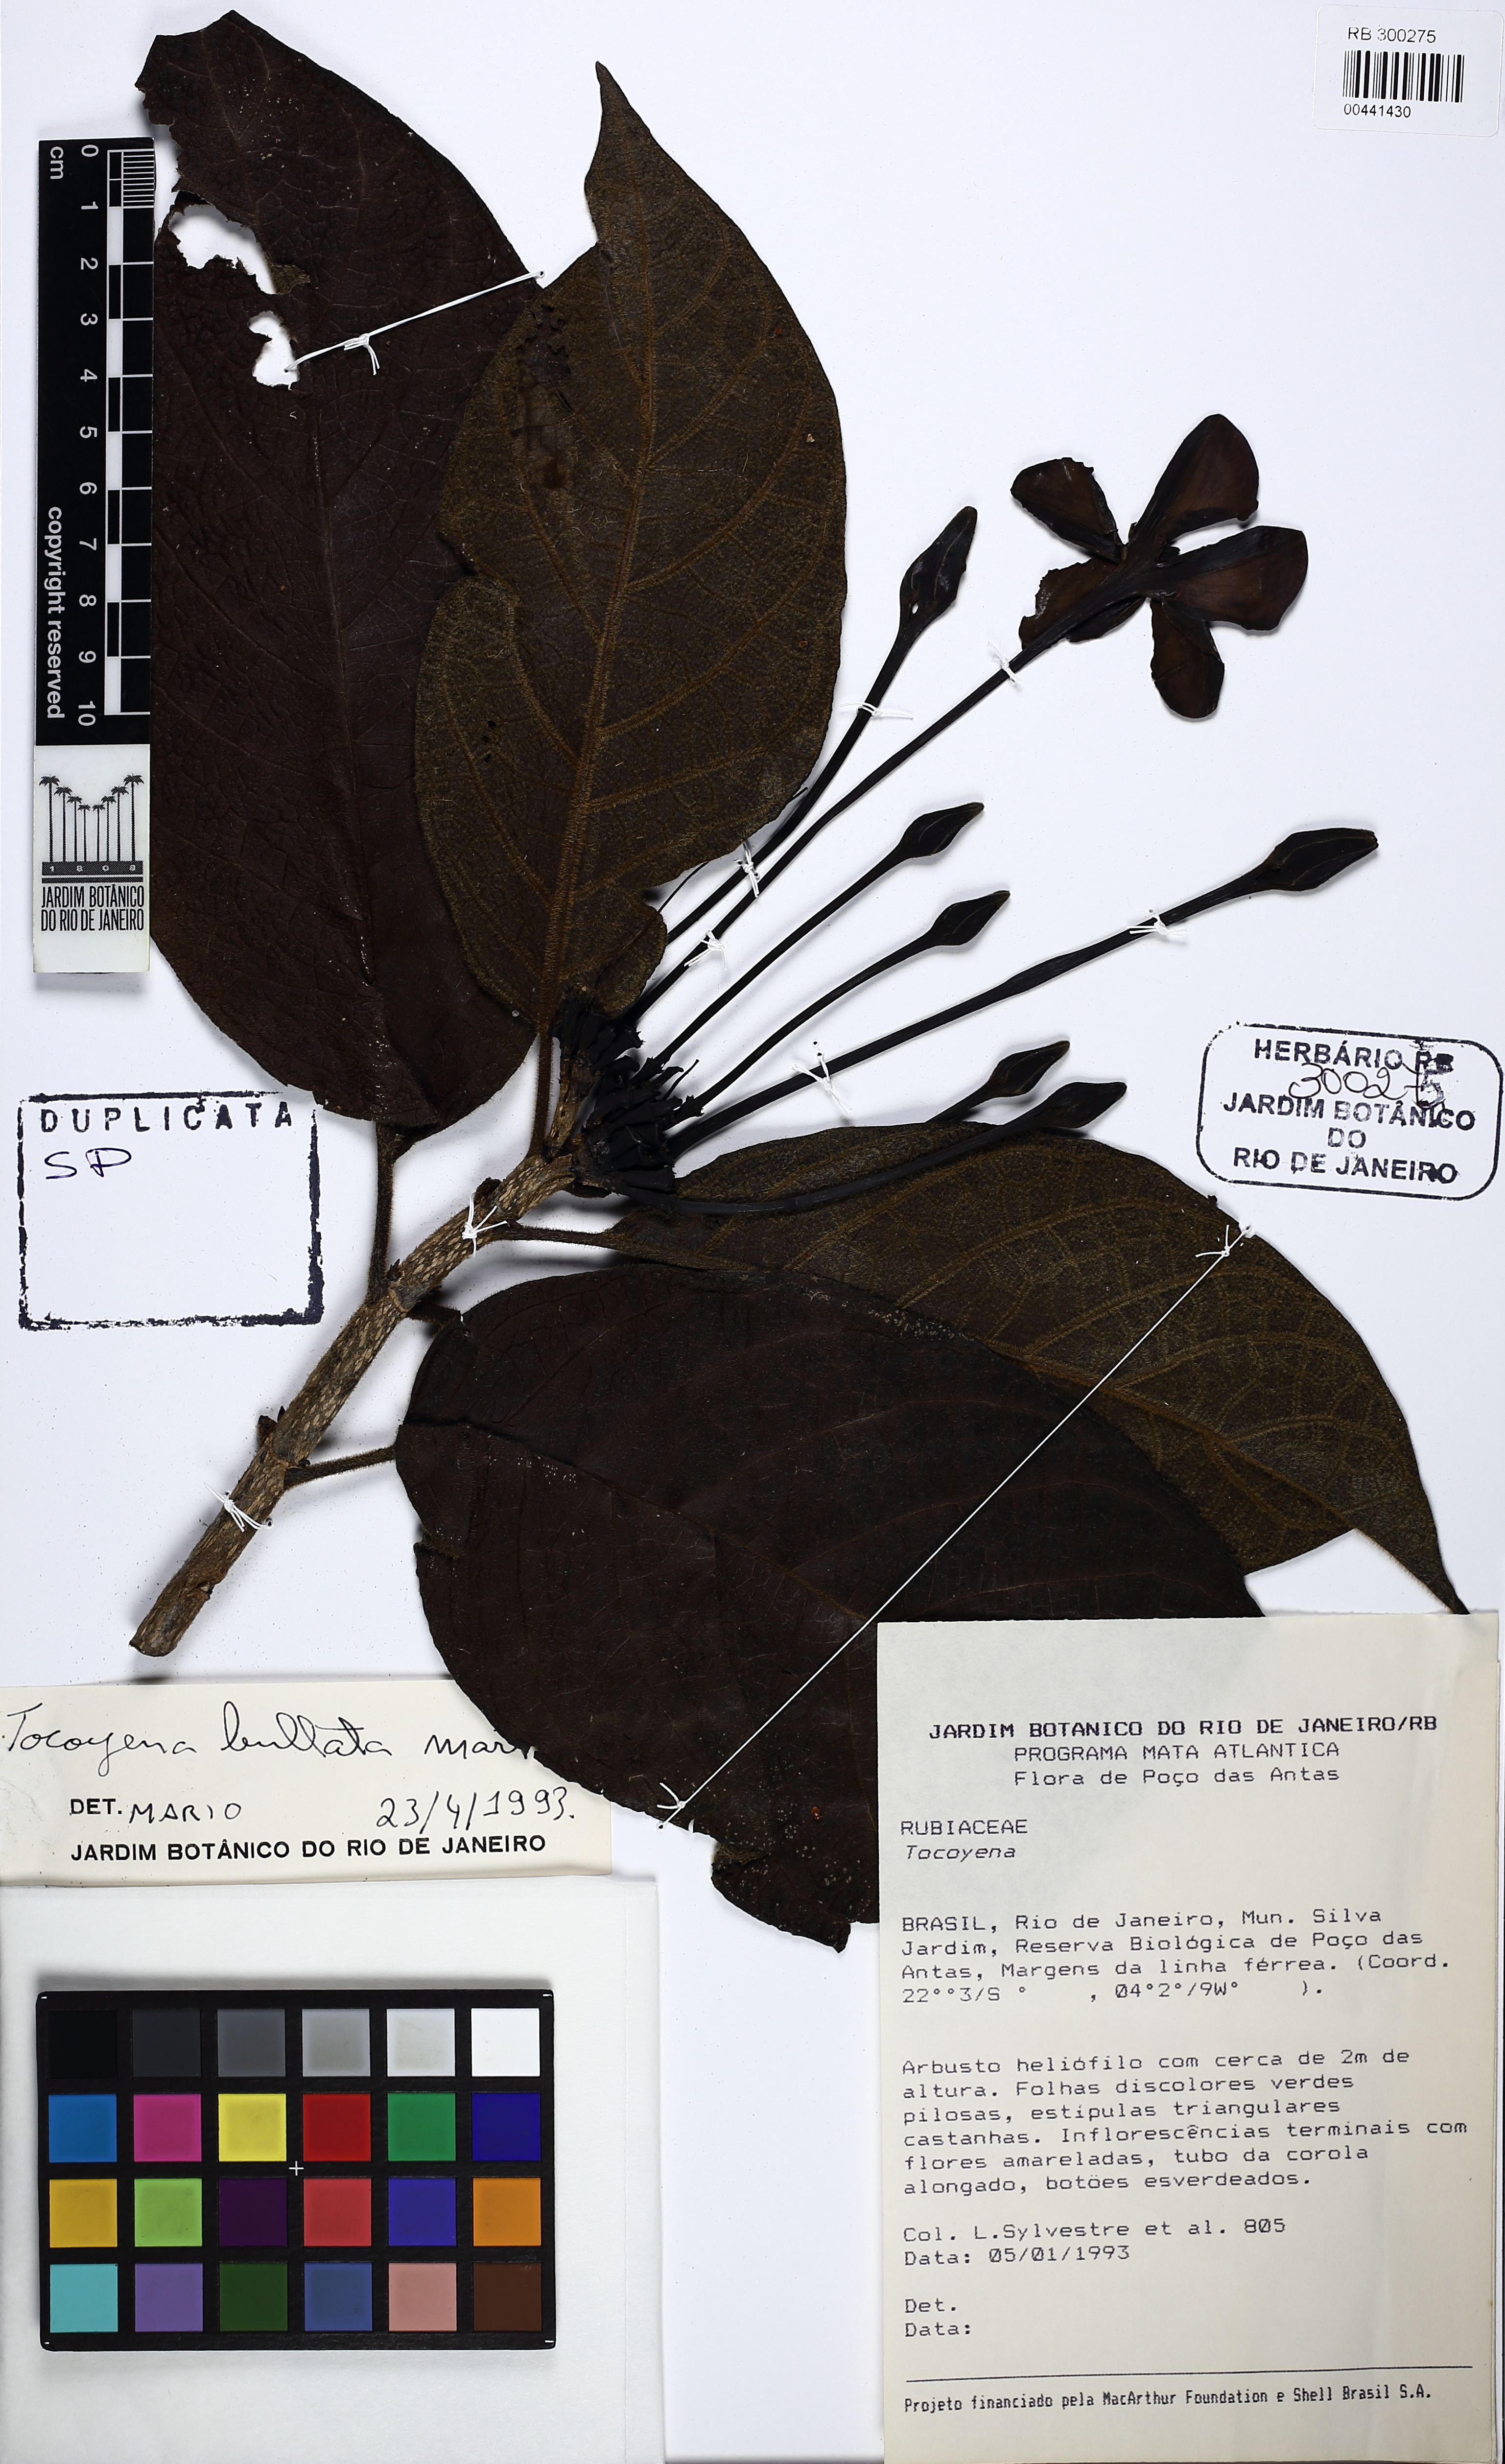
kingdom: Plantae
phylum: Tracheophyta
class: Magnoliopsida
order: Gentianales
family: Rubiaceae
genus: Tocoyena
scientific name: Tocoyena bullata
